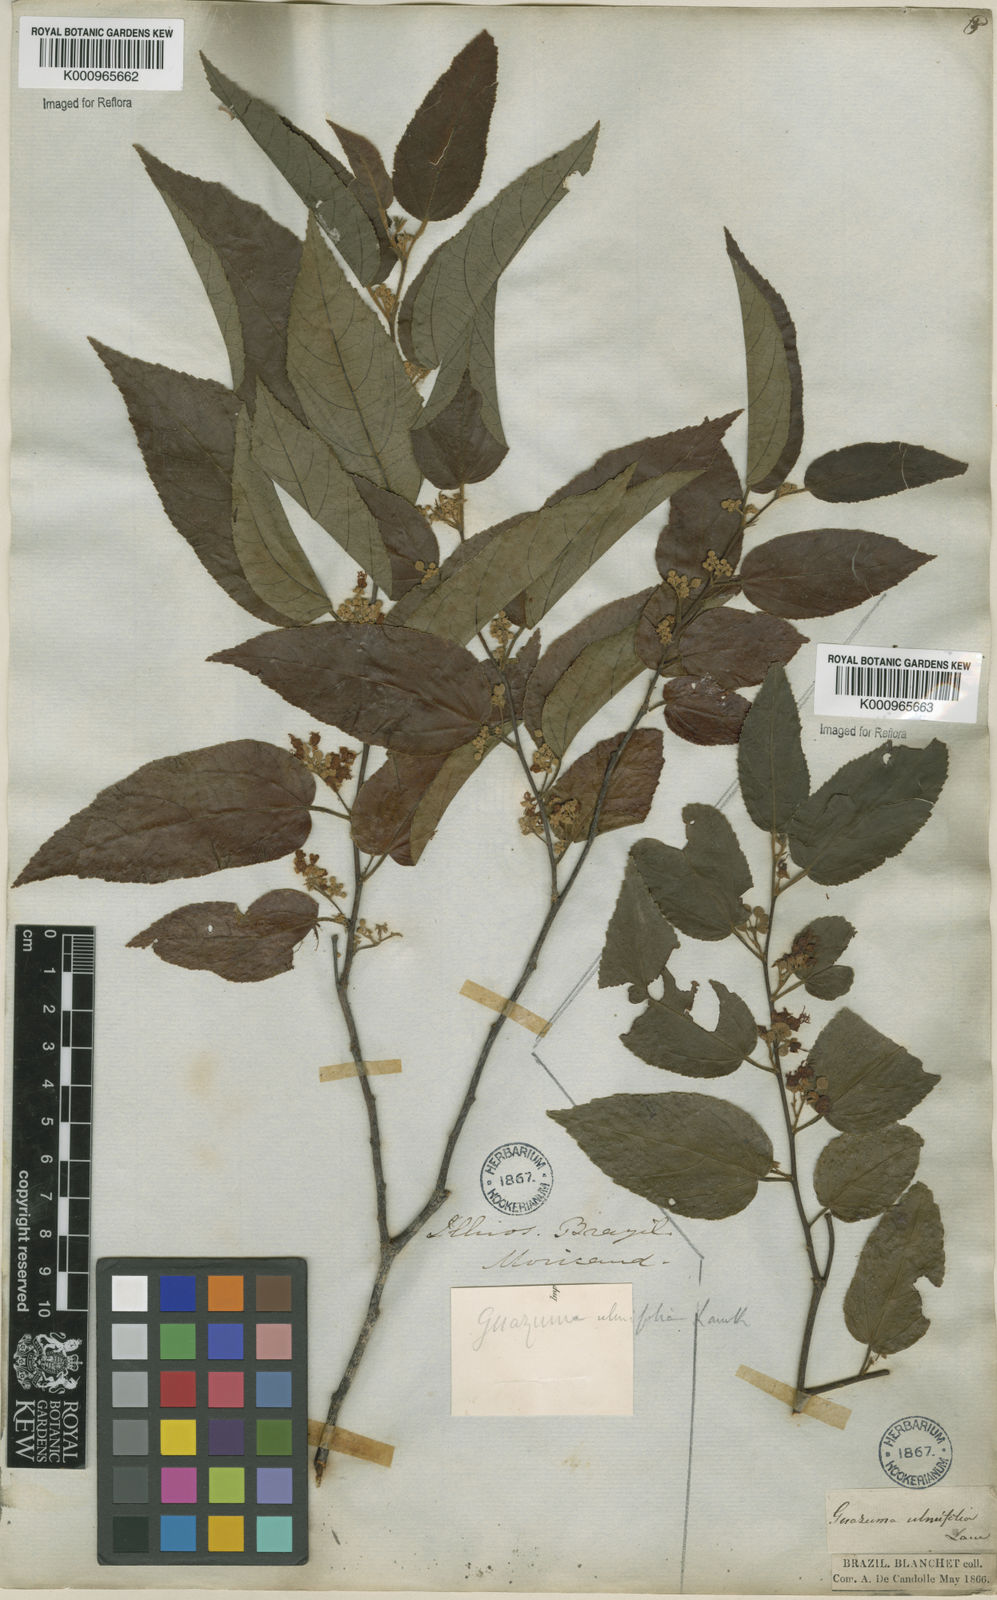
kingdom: Plantae
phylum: Tracheophyta
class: Magnoliopsida
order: Malvales
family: Malvaceae
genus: Guazuma
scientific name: Guazuma ulmifolia
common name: Bastard-cedar
